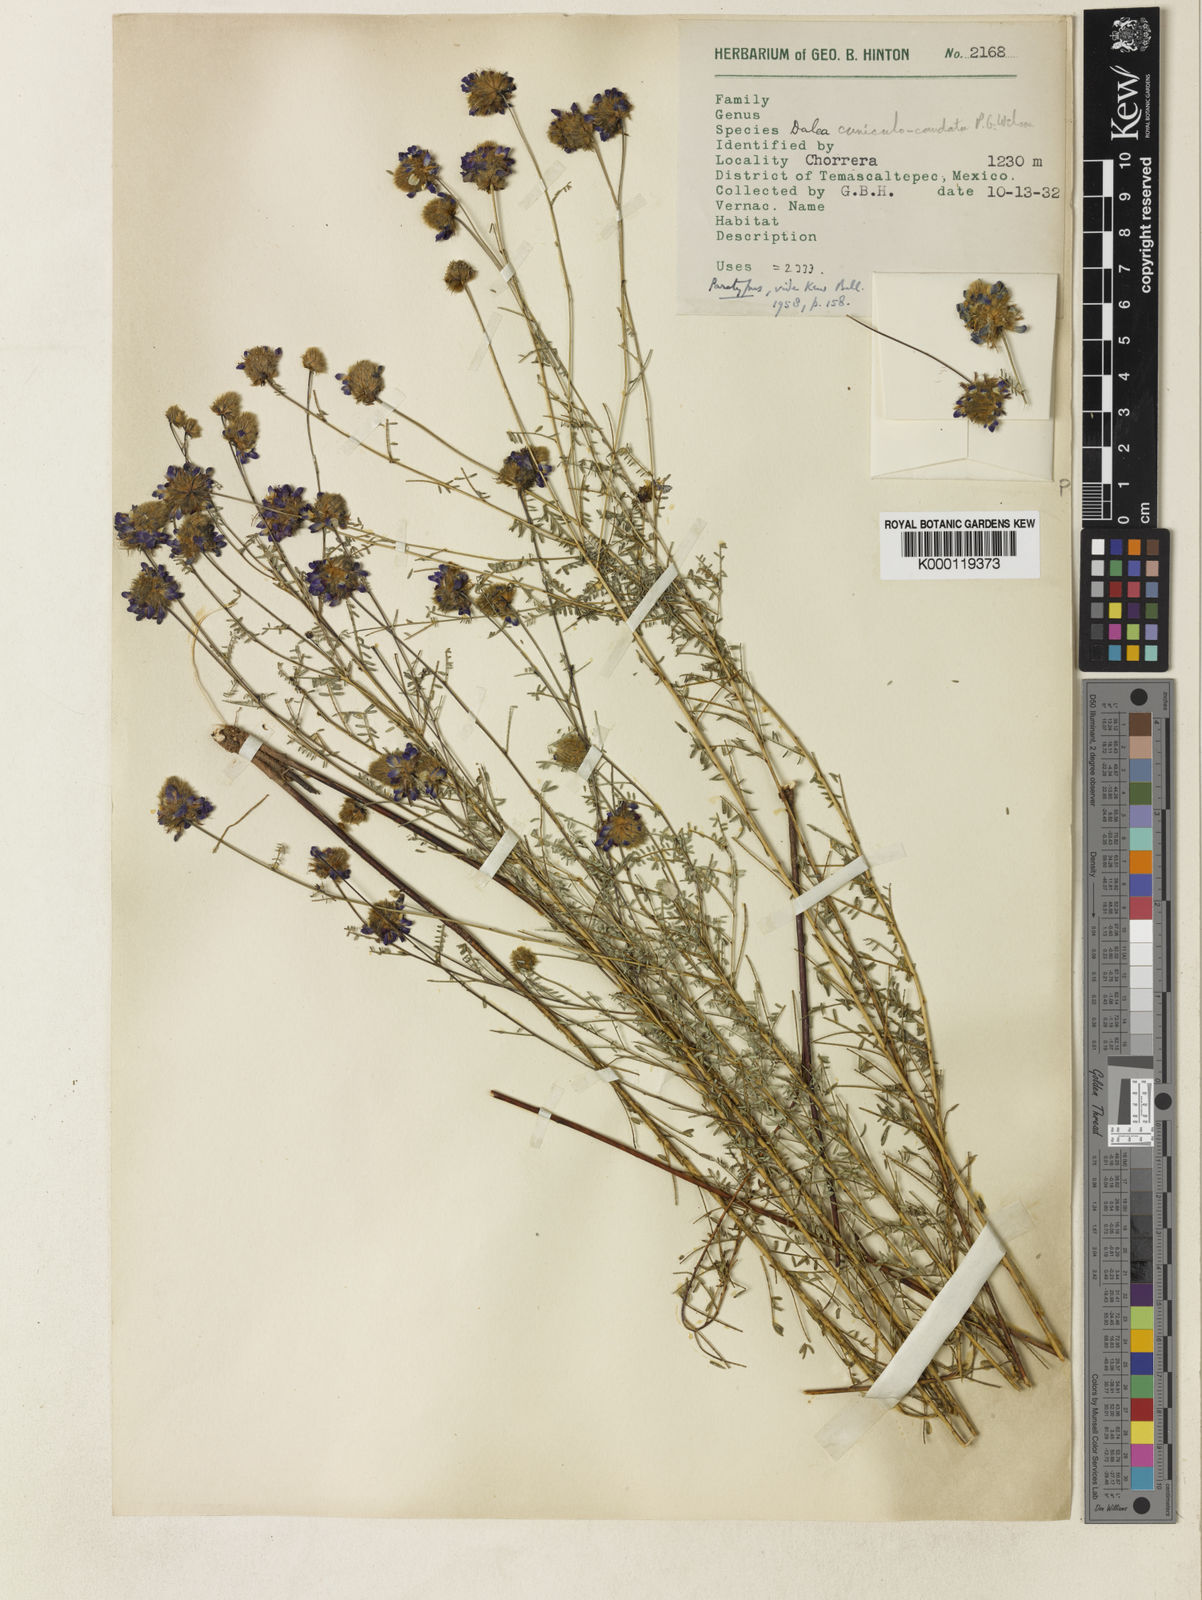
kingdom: Plantae
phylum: Tracheophyta
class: Magnoliopsida
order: Fabales
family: Fabaceae
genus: Dalea
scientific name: Dalea cuniculocaudata
